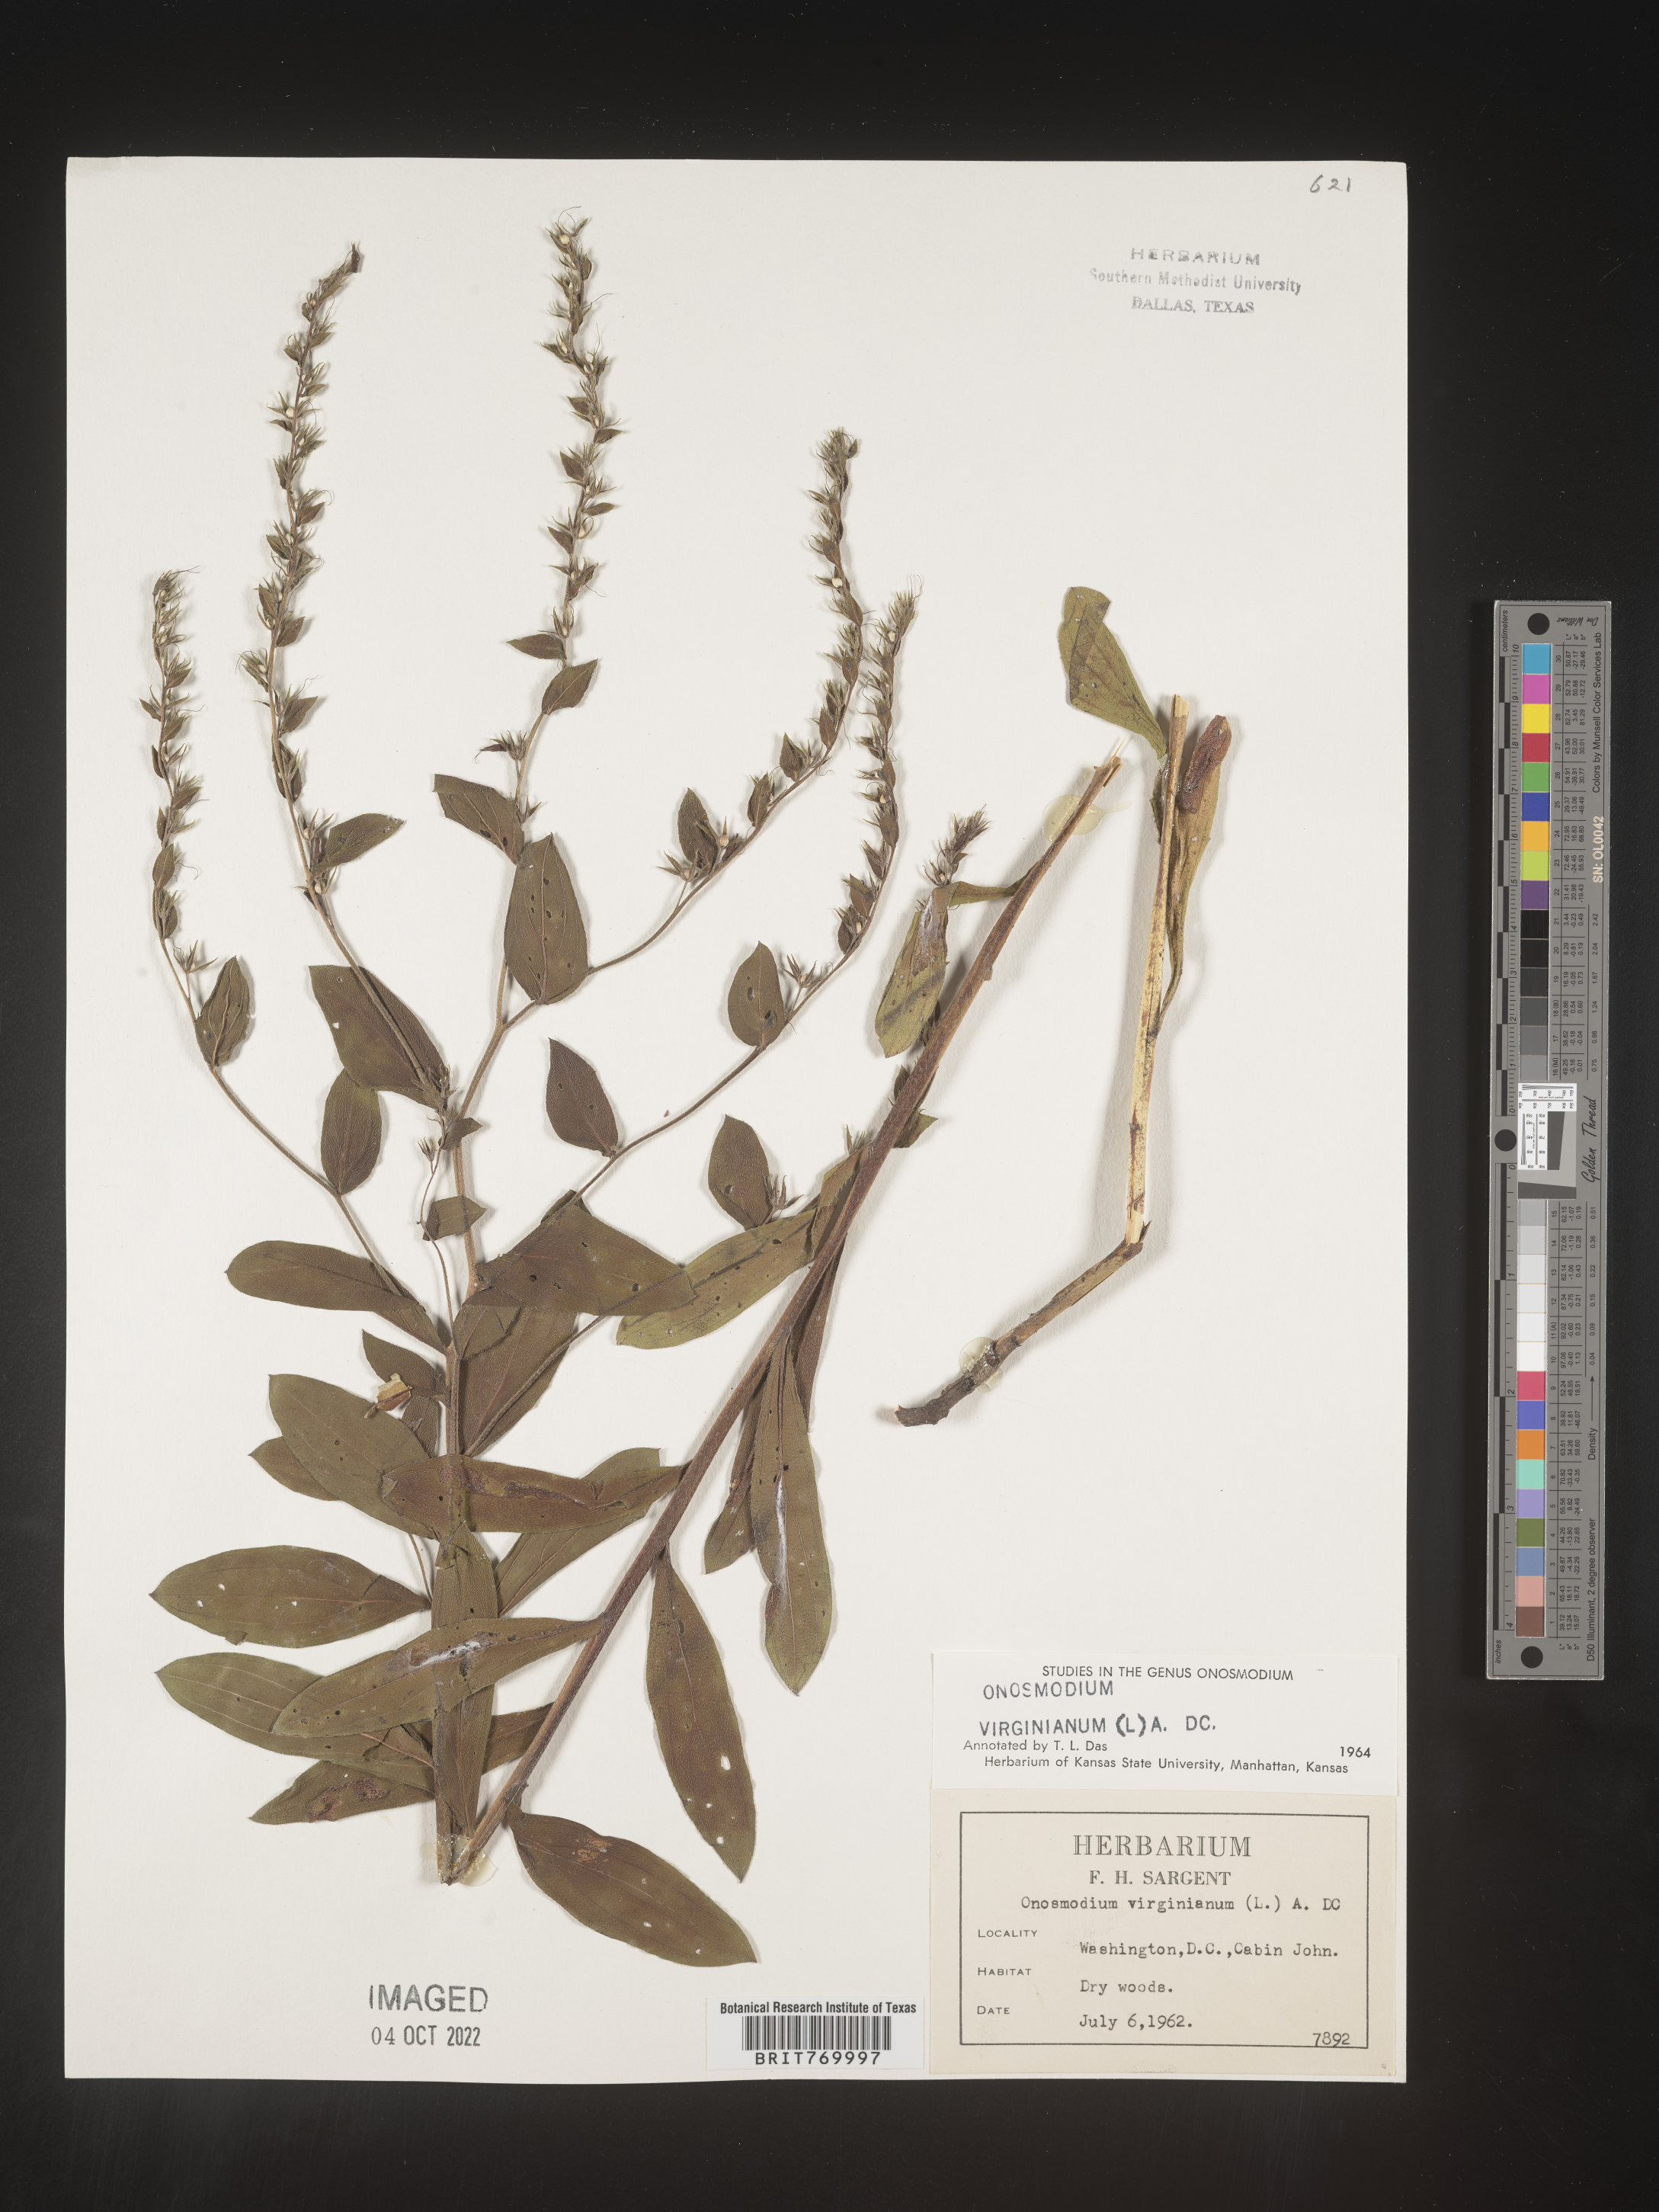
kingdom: Plantae
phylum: Tracheophyta
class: Magnoliopsida
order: Boraginales
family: Boraginaceae
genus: Lithospermum
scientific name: Lithospermum virginianum
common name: Eastern false gromwell
